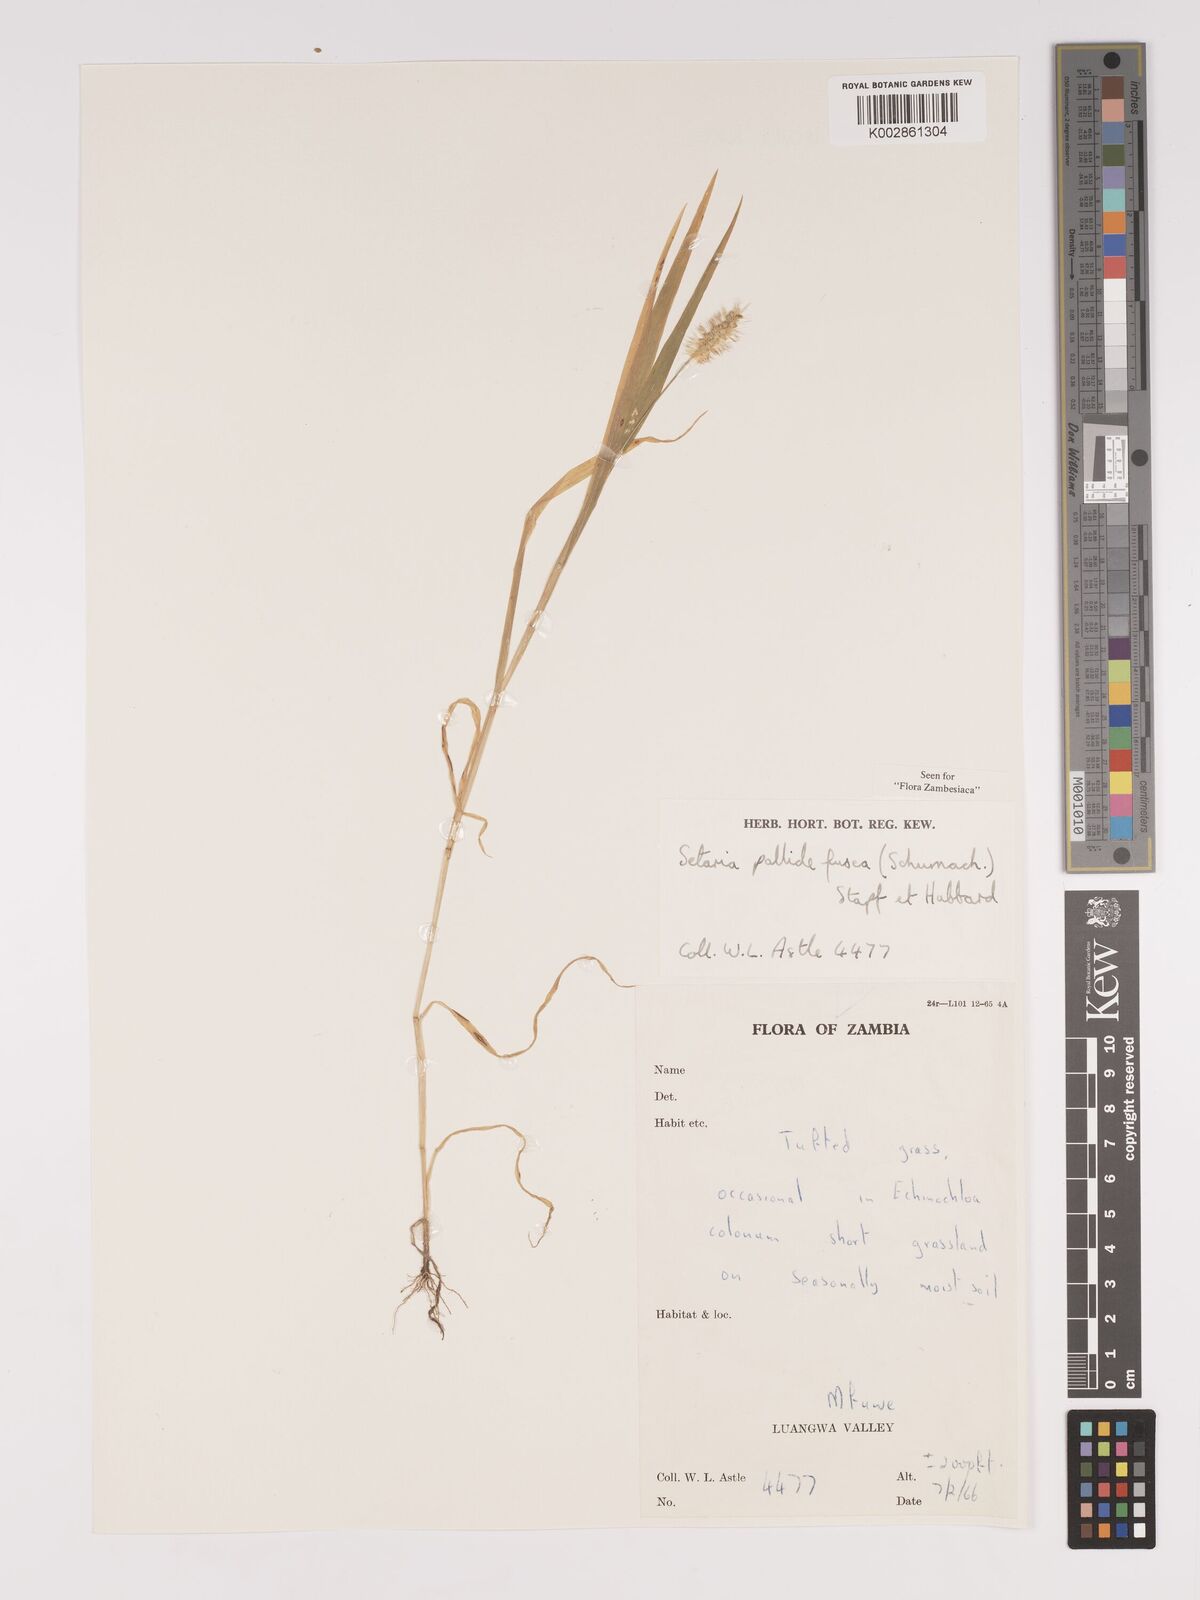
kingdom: Plantae
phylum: Tracheophyta
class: Liliopsida
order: Poales
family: Poaceae
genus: Setaria
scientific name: Setaria pumila
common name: Yellow bristle-grass
